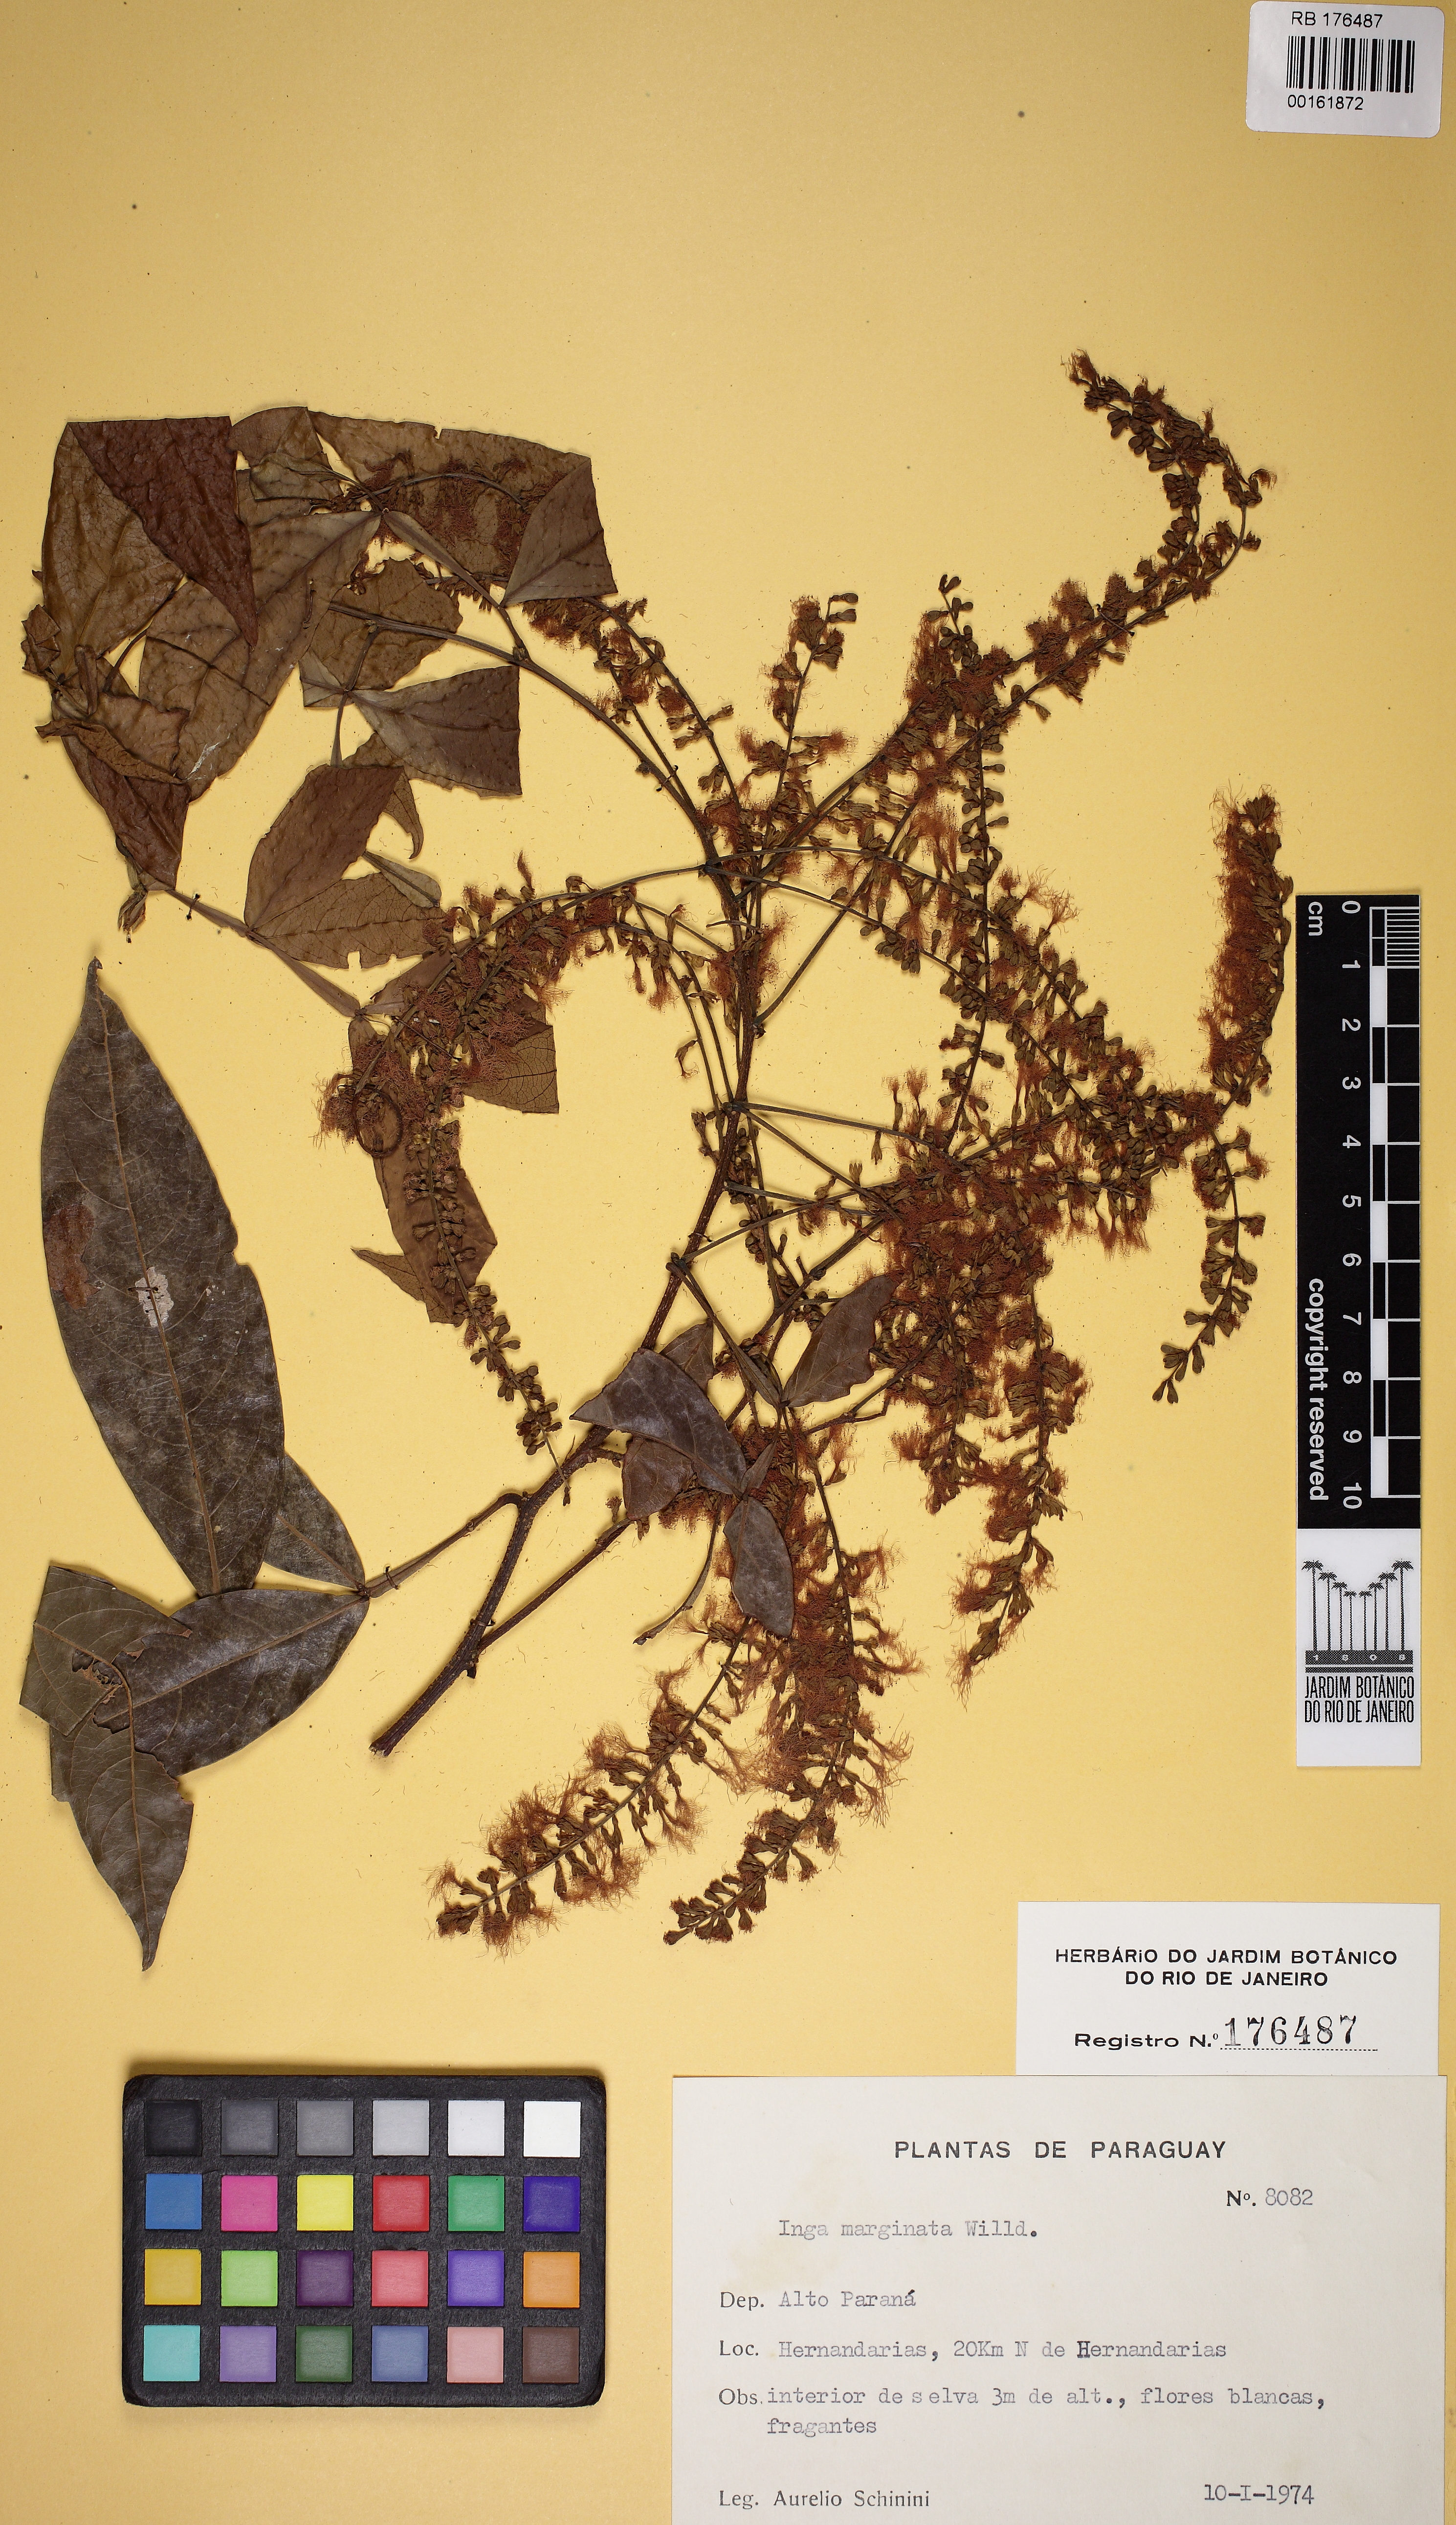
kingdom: Plantae
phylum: Tracheophyta
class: Magnoliopsida
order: Fabales
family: Fabaceae
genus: Inga
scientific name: Inga marginata
